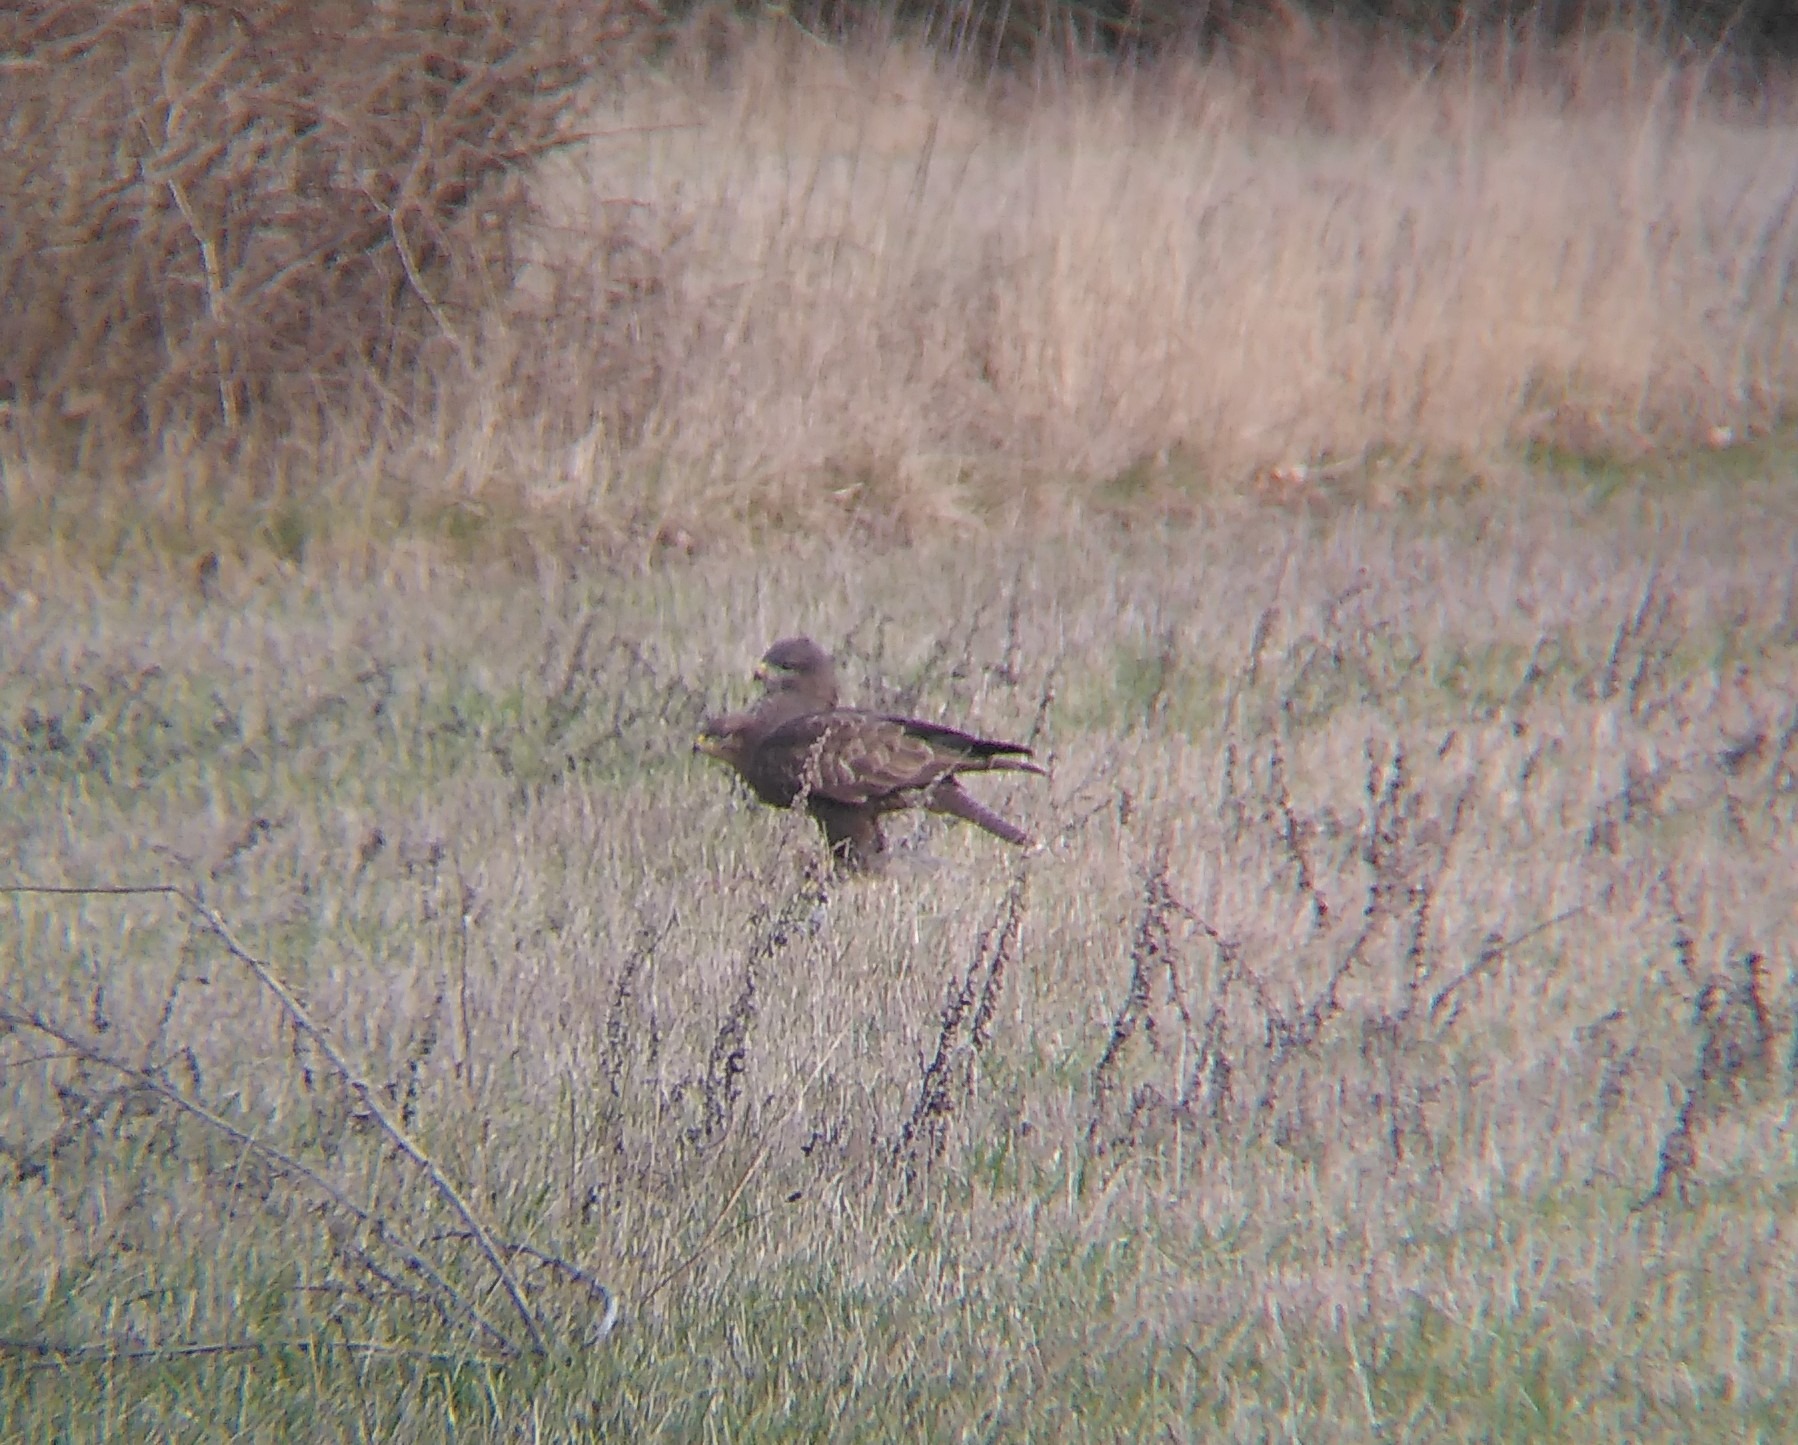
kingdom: Animalia
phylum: Chordata
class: Aves
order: Accipitriformes
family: Accipitridae
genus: Buteo
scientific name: Buteo buteo
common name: Musvåge
